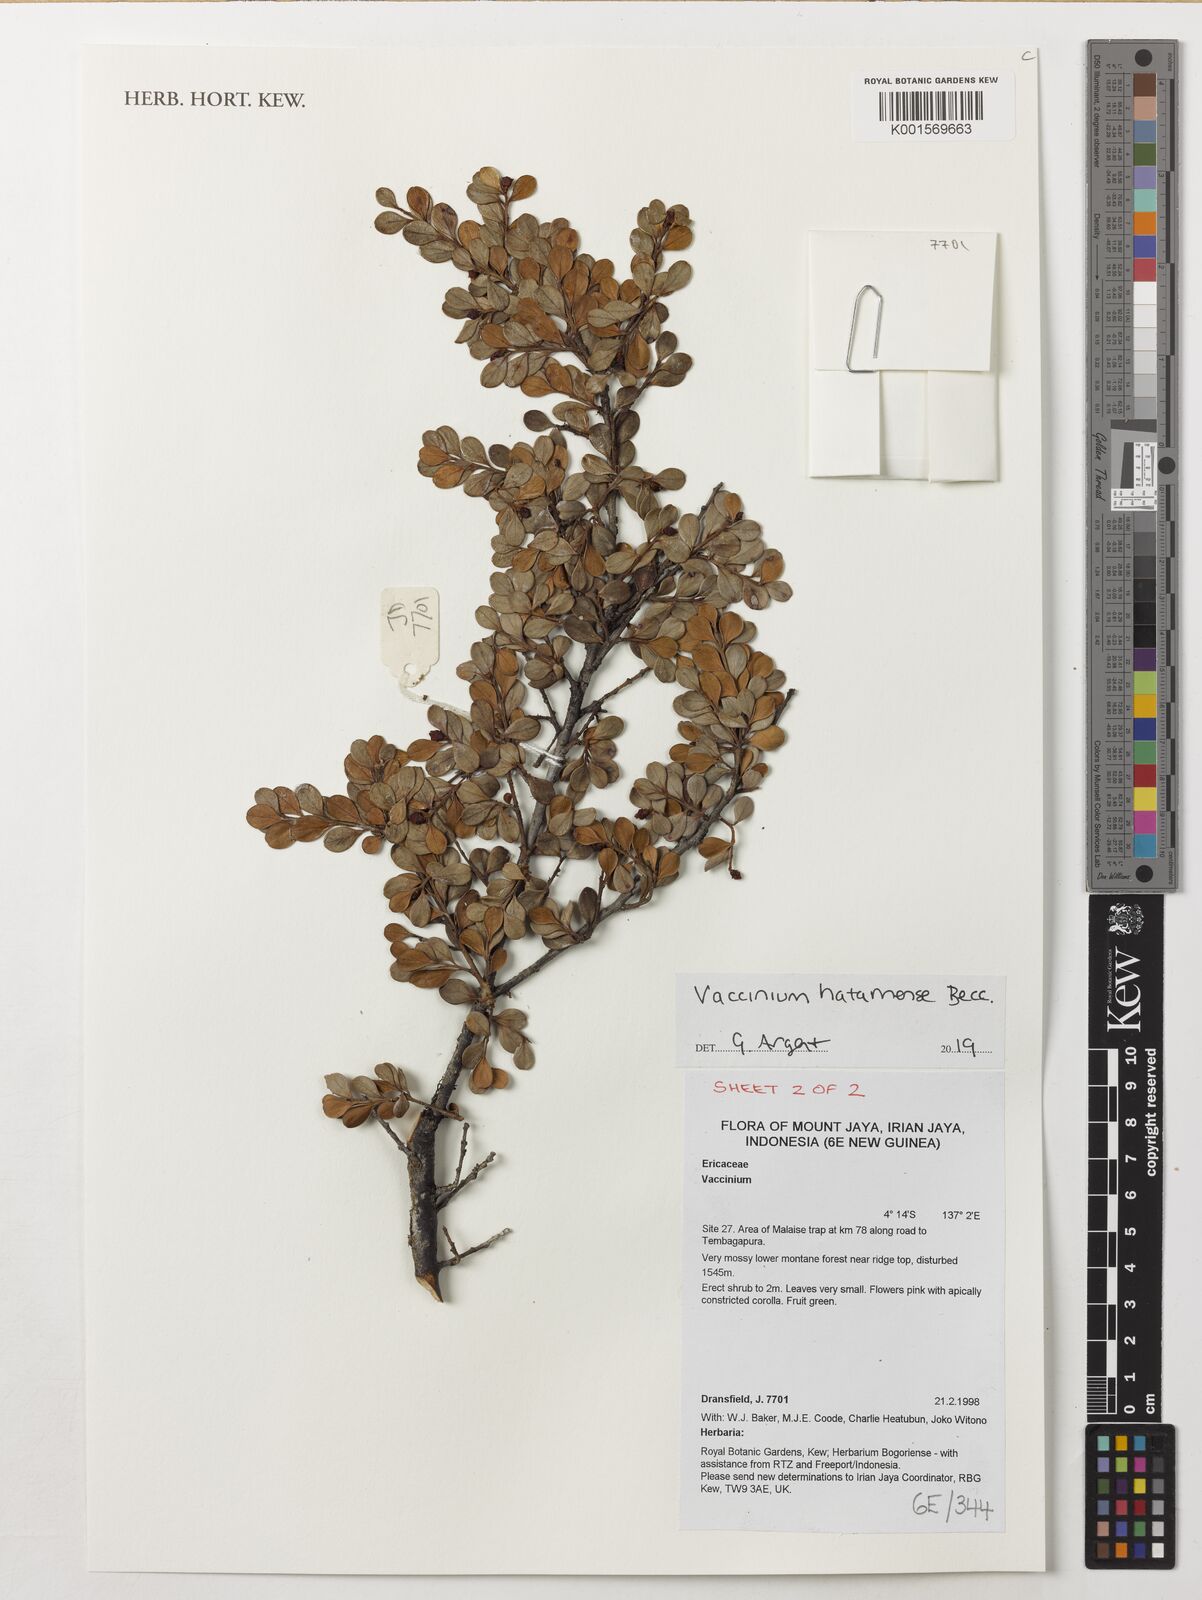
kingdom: Plantae
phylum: Tracheophyta
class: Magnoliopsida
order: Ericales
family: Ericaceae
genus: Vaccinium
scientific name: Vaccinium hatamense
